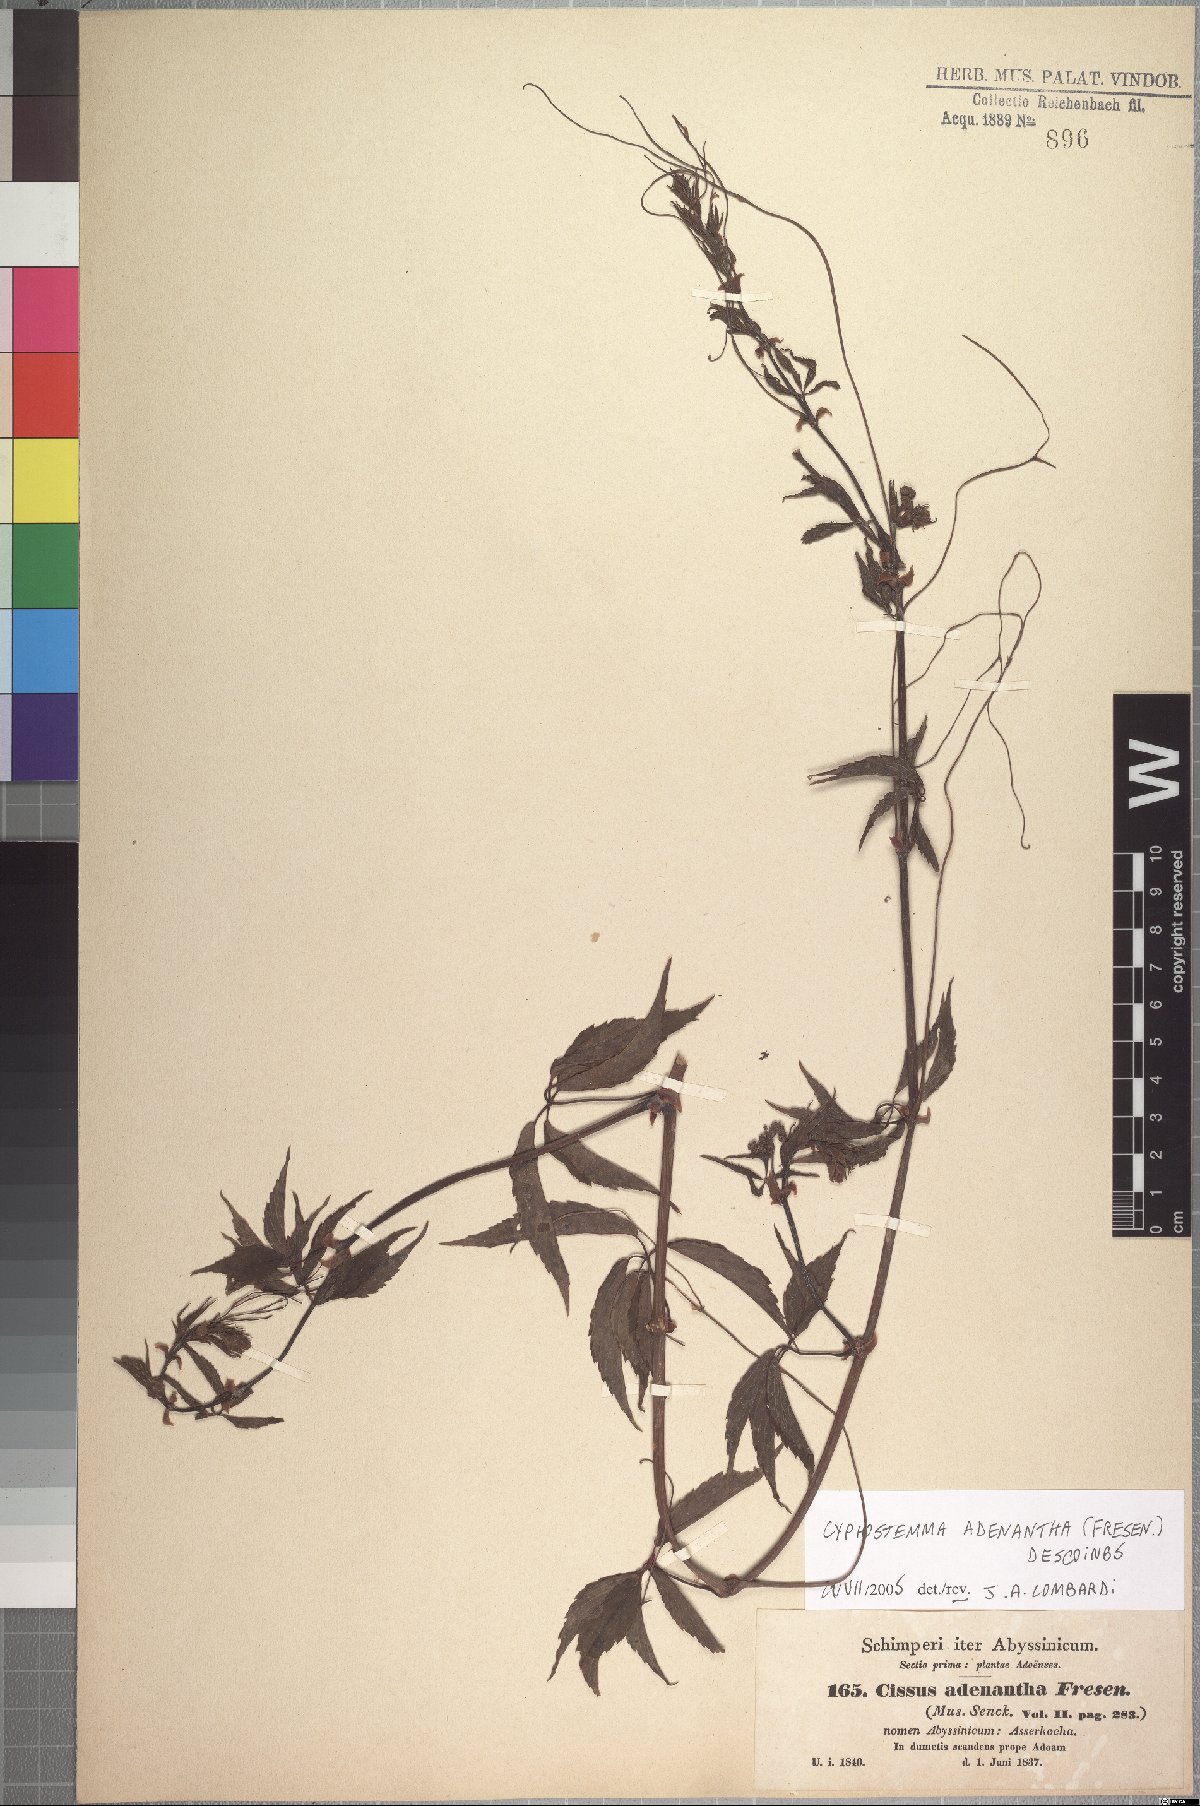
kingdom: Plantae
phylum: Tracheophyta
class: Magnoliopsida
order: Vitales
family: Vitaceae
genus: Cyphostemma
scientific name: Cyphostemma adenanthum
